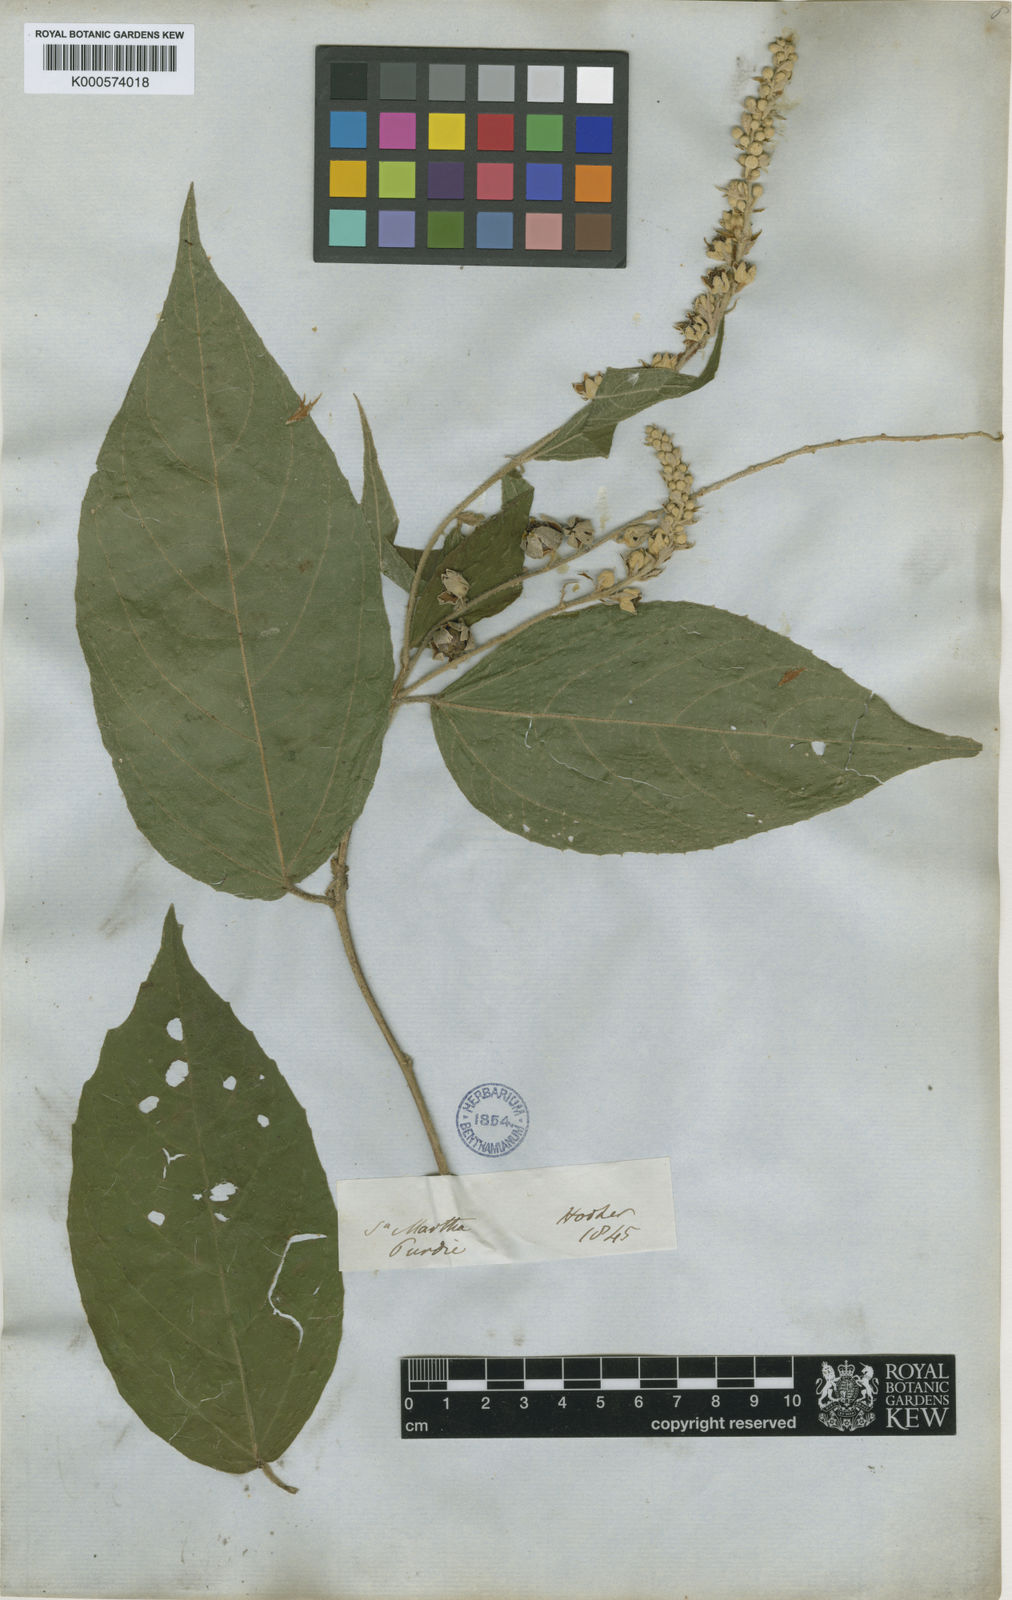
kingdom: Plantae
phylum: Tracheophyta
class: Magnoliopsida
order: Malpighiales
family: Euphorbiaceae
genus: Croton
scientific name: Croton fragrans
